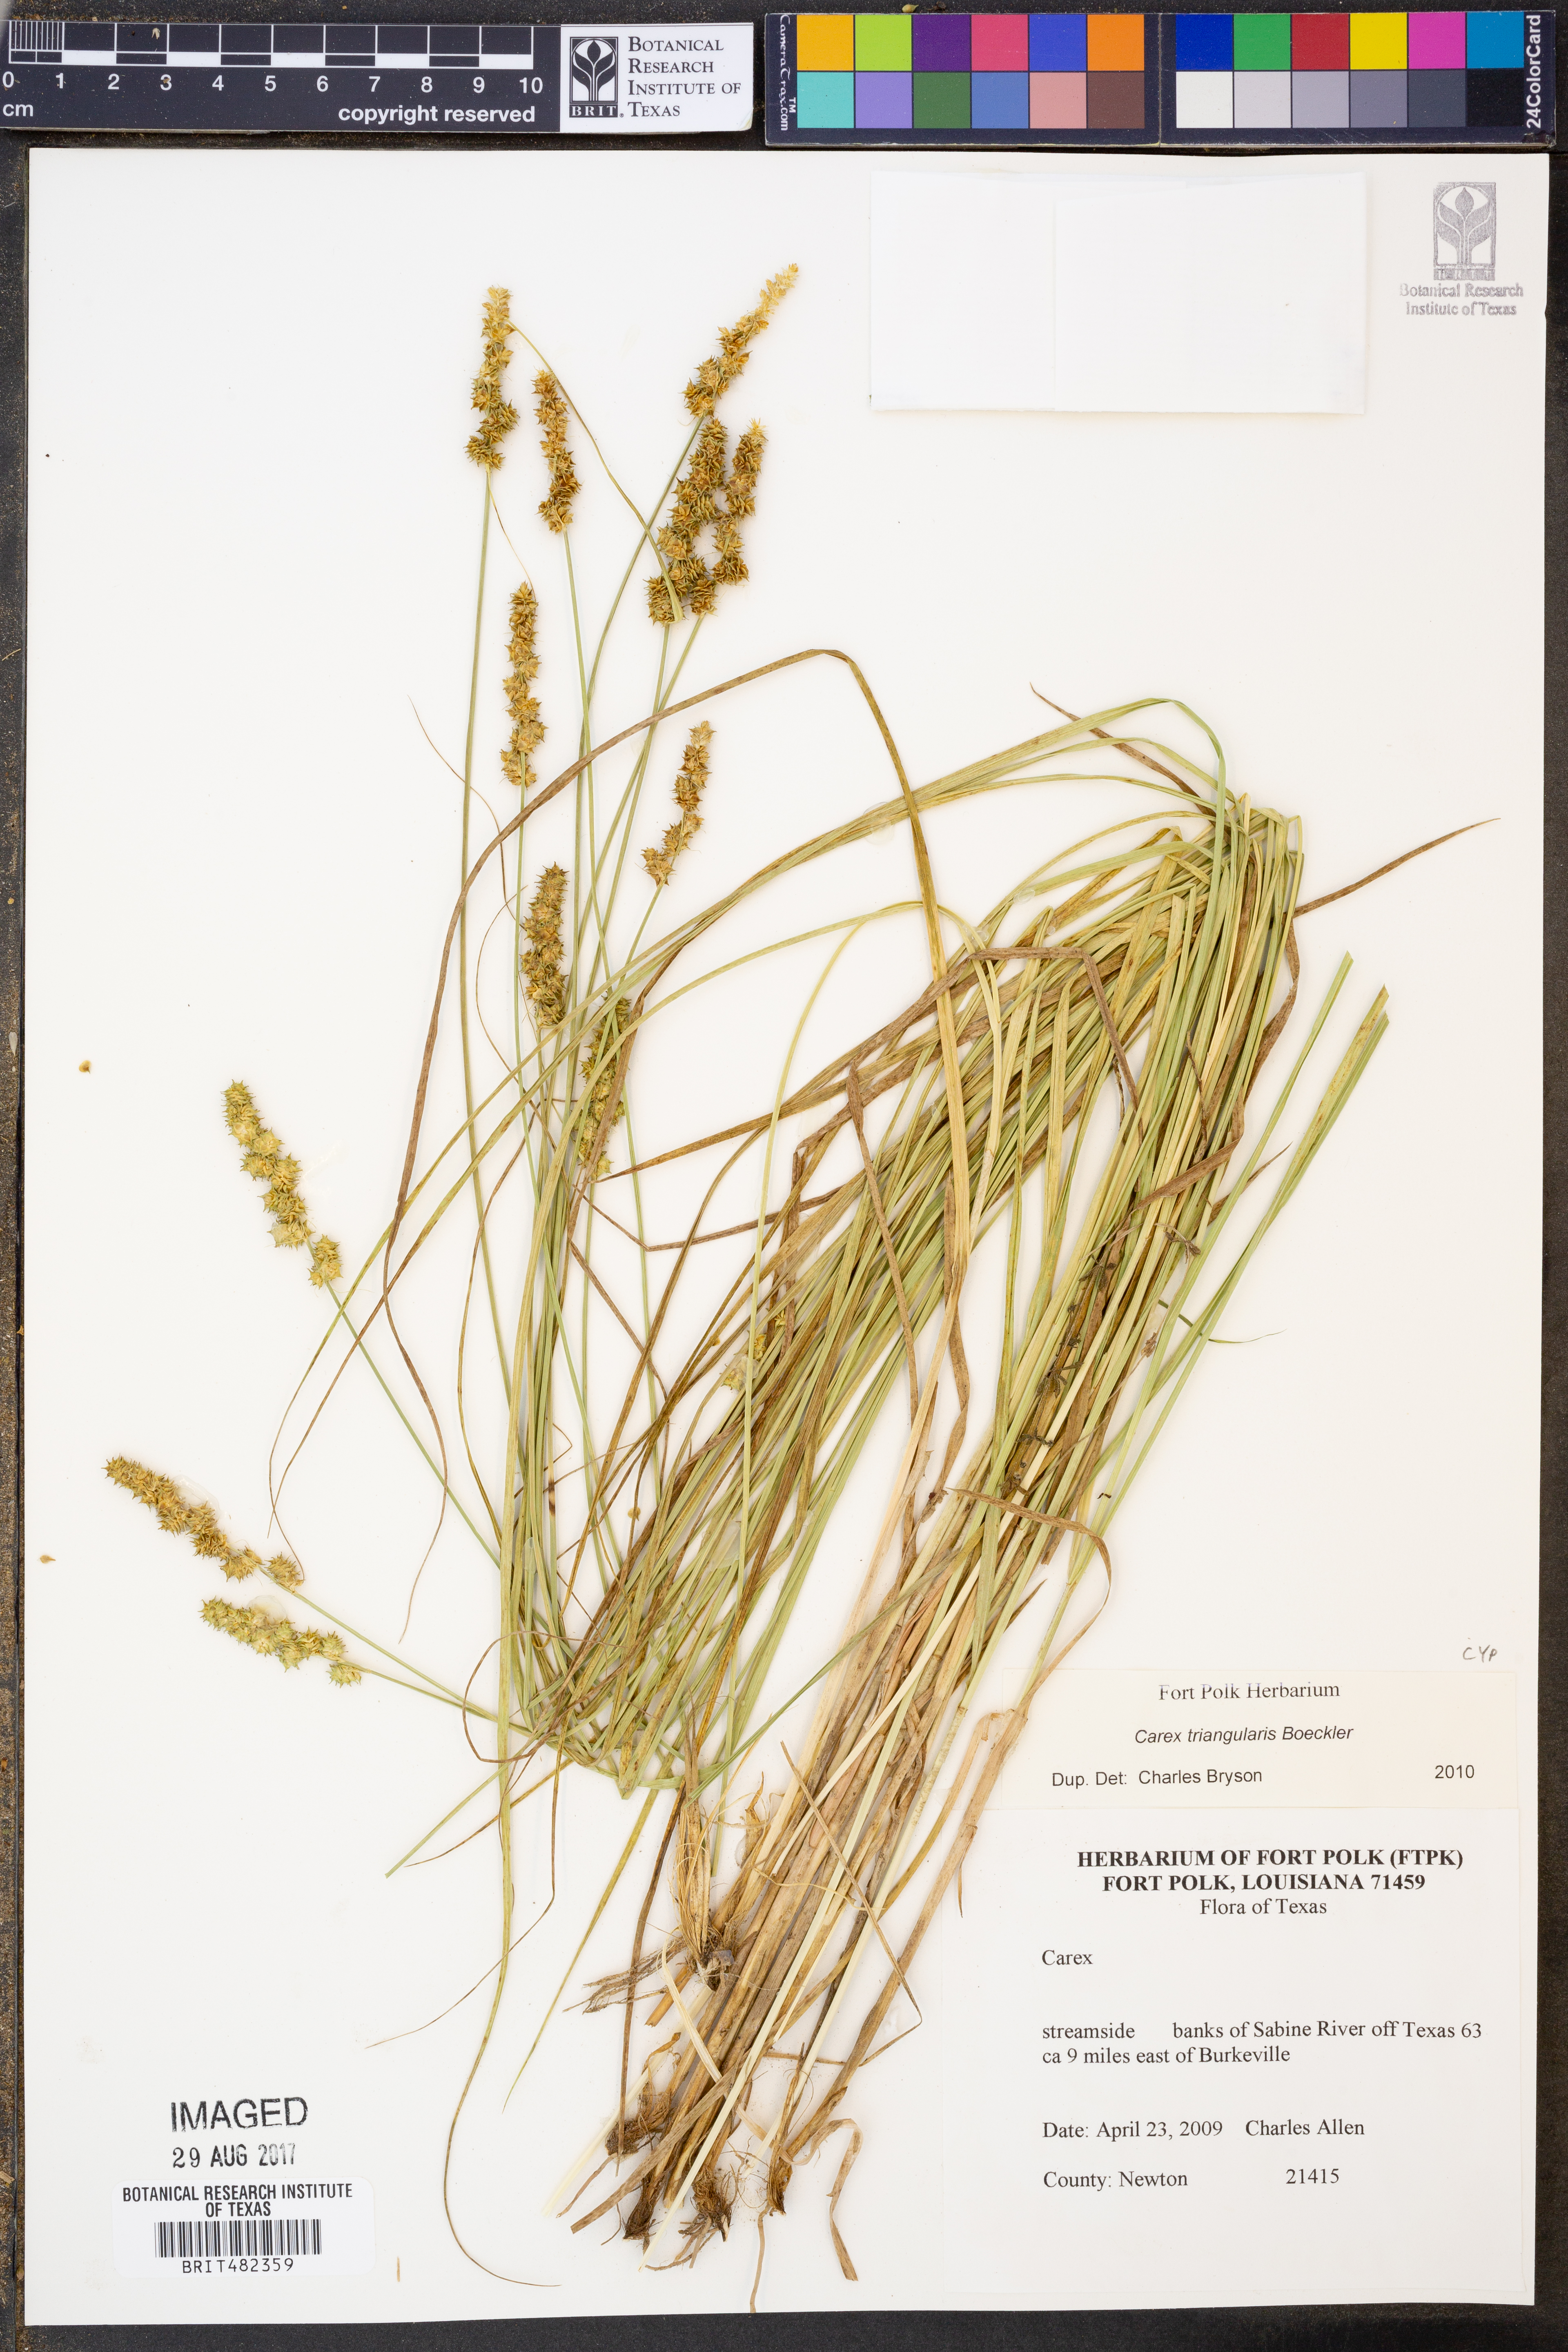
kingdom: Plantae
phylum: Tracheophyta
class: Liliopsida
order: Poales
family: Cyperaceae
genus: Carex
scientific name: Carex triangularis
